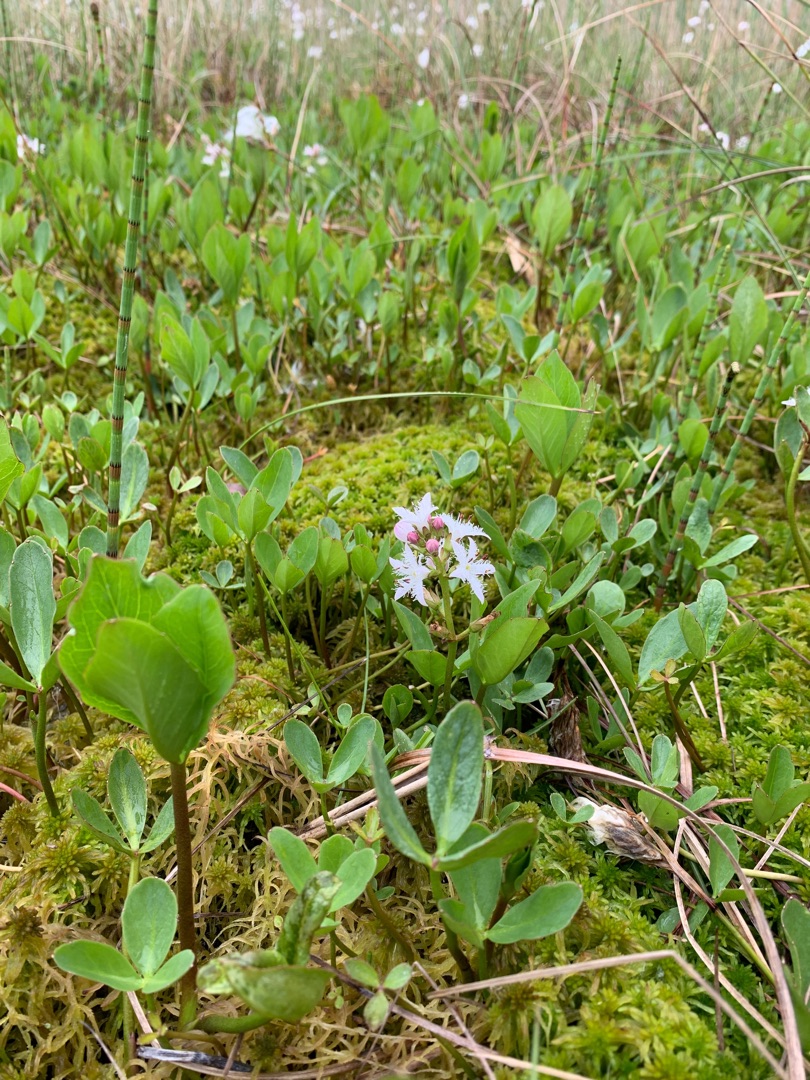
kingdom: Plantae
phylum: Tracheophyta
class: Magnoliopsida
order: Asterales
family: Menyanthaceae
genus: Menyanthes
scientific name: Menyanthes trifoliata
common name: Bukkeblad
